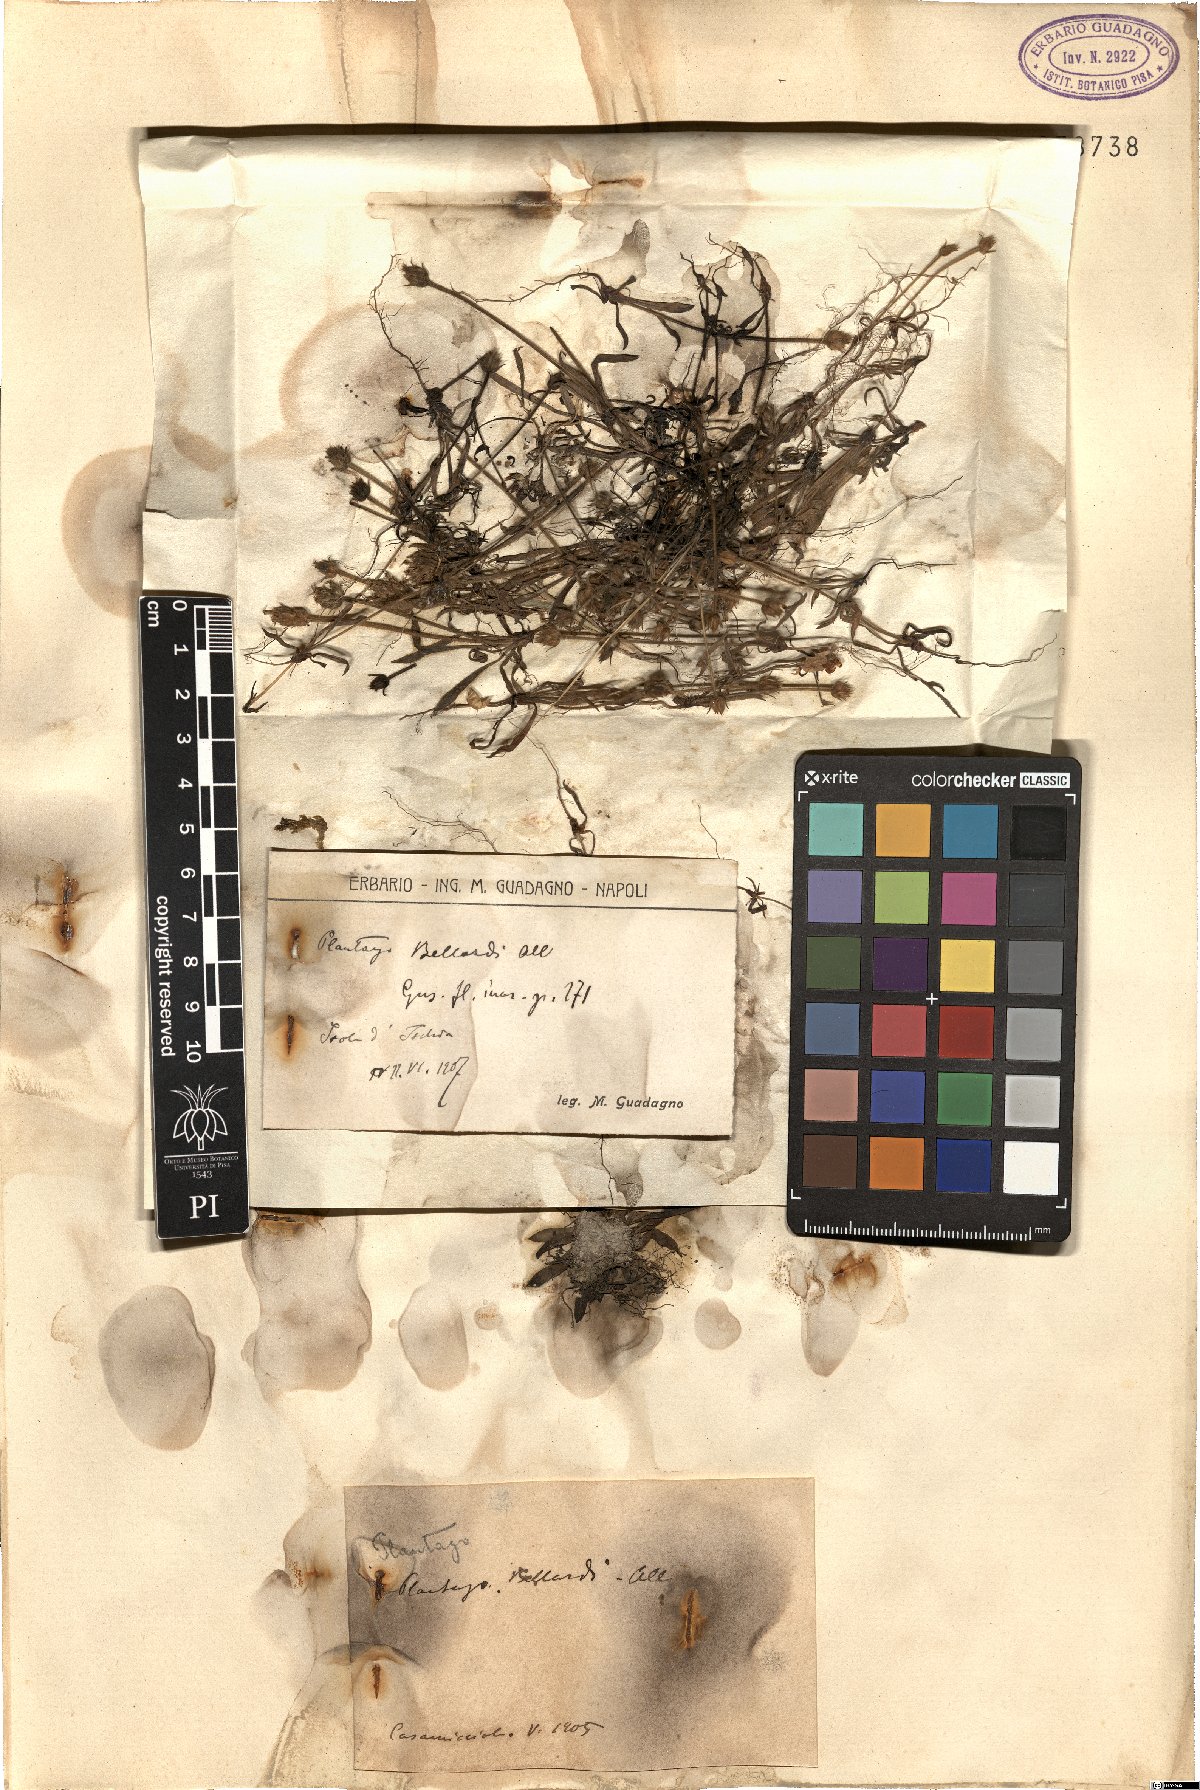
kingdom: Plantae
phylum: Tracheophyta
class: Magnoliopsida
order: Lamiales
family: Plantaginaceae
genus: Plantago
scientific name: Plantago bellardii
